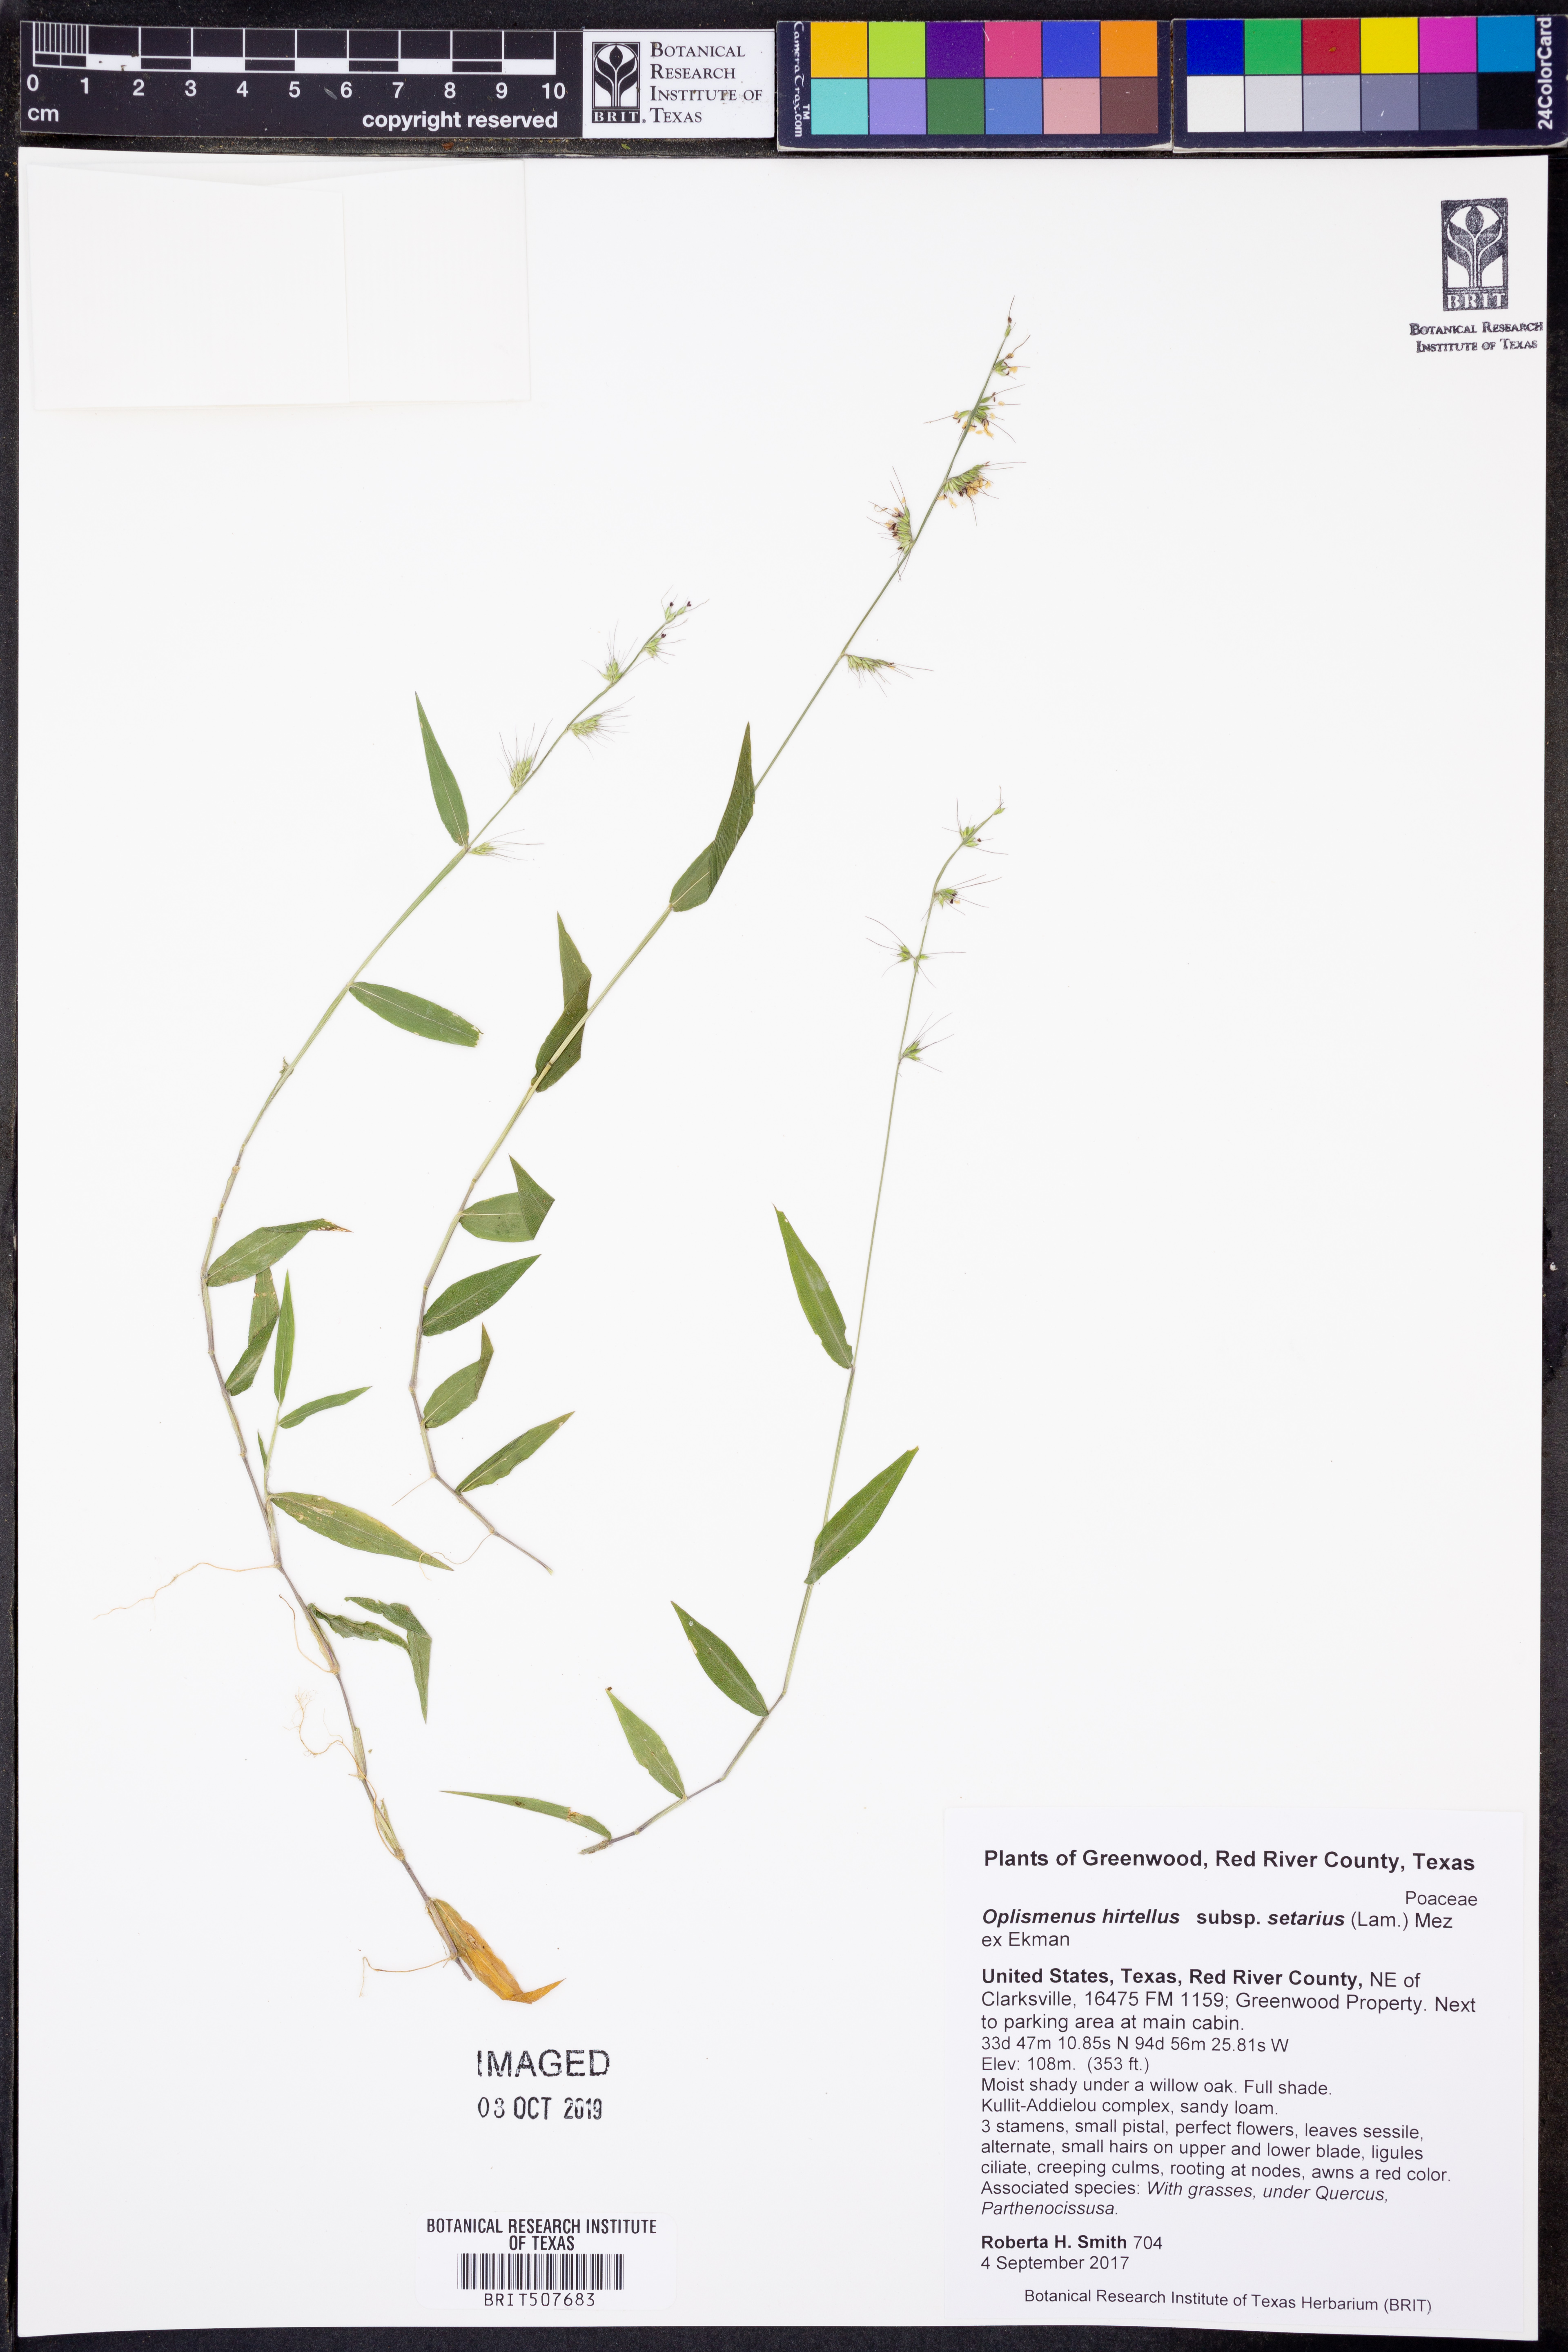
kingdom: Plantae
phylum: Tracheophyta
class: Liliopsida
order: Poales
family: Poaceae
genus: Oplismenus
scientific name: Oplismenus compositus
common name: Running mountain grass
